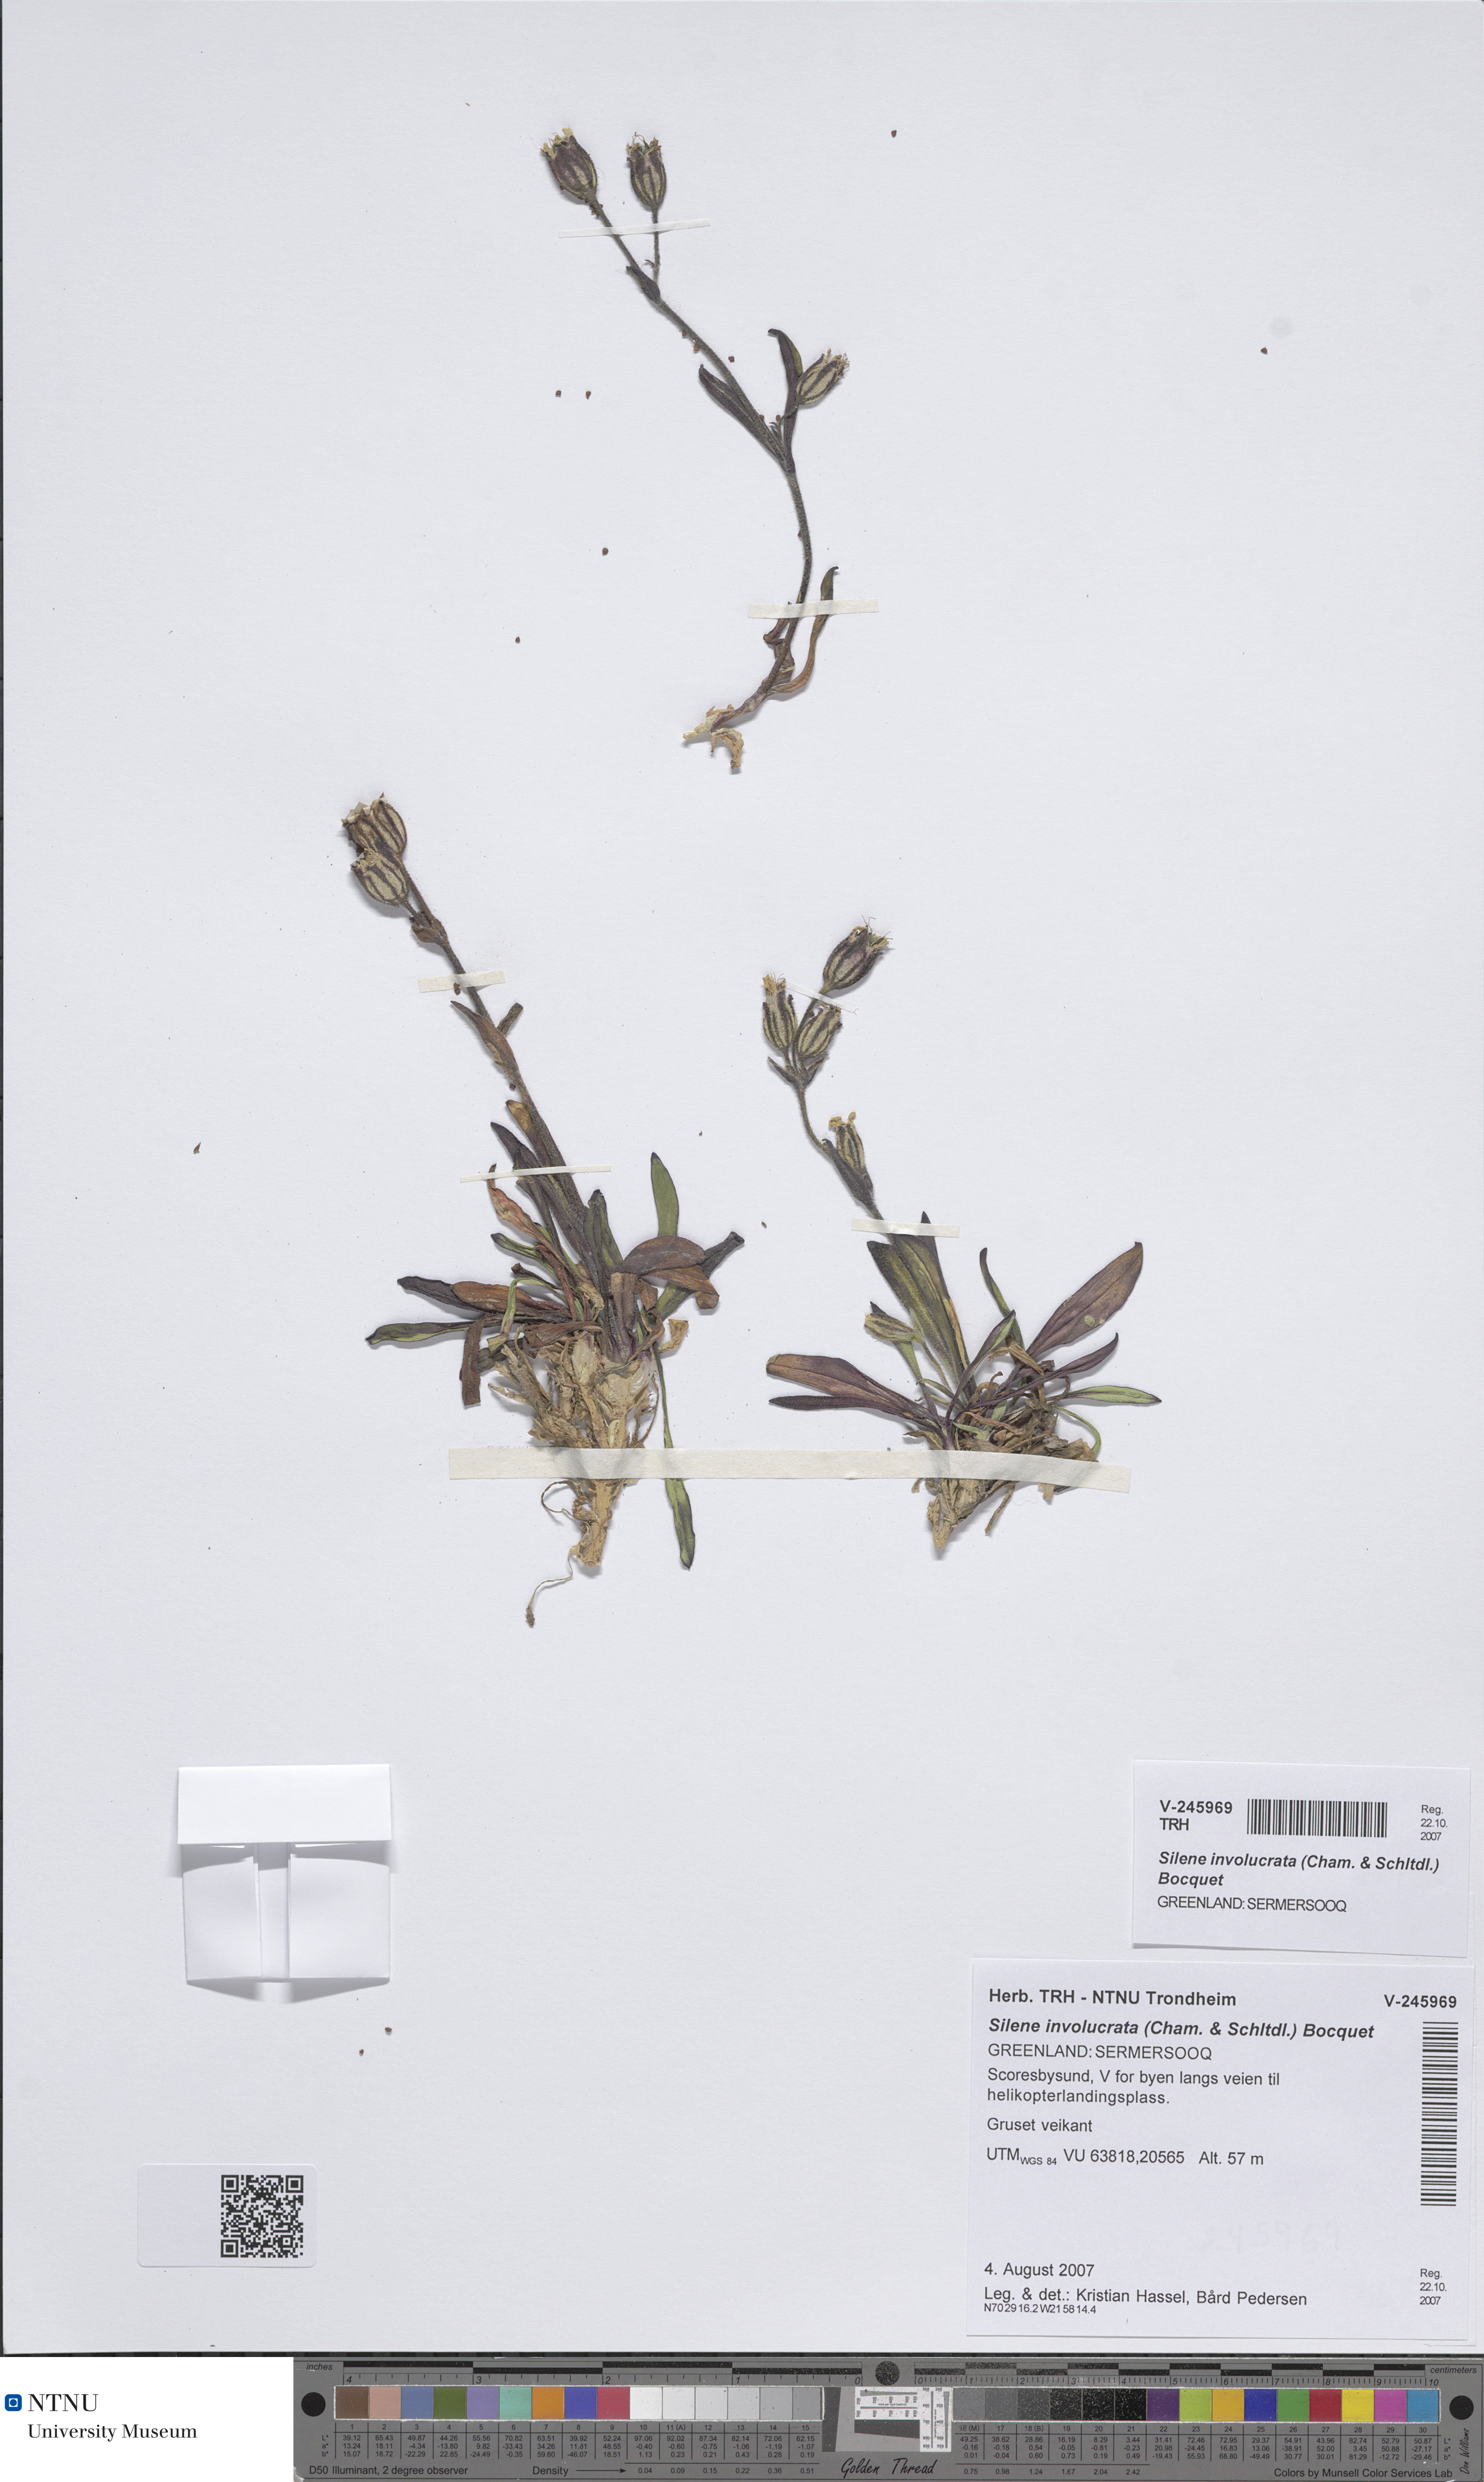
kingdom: Plantae
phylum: Tracheophyta
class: Magnoliopsida
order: Caryophyllales
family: Caryophyllaceae
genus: Silene
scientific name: Silene involucrata
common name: Greater arctic campion
